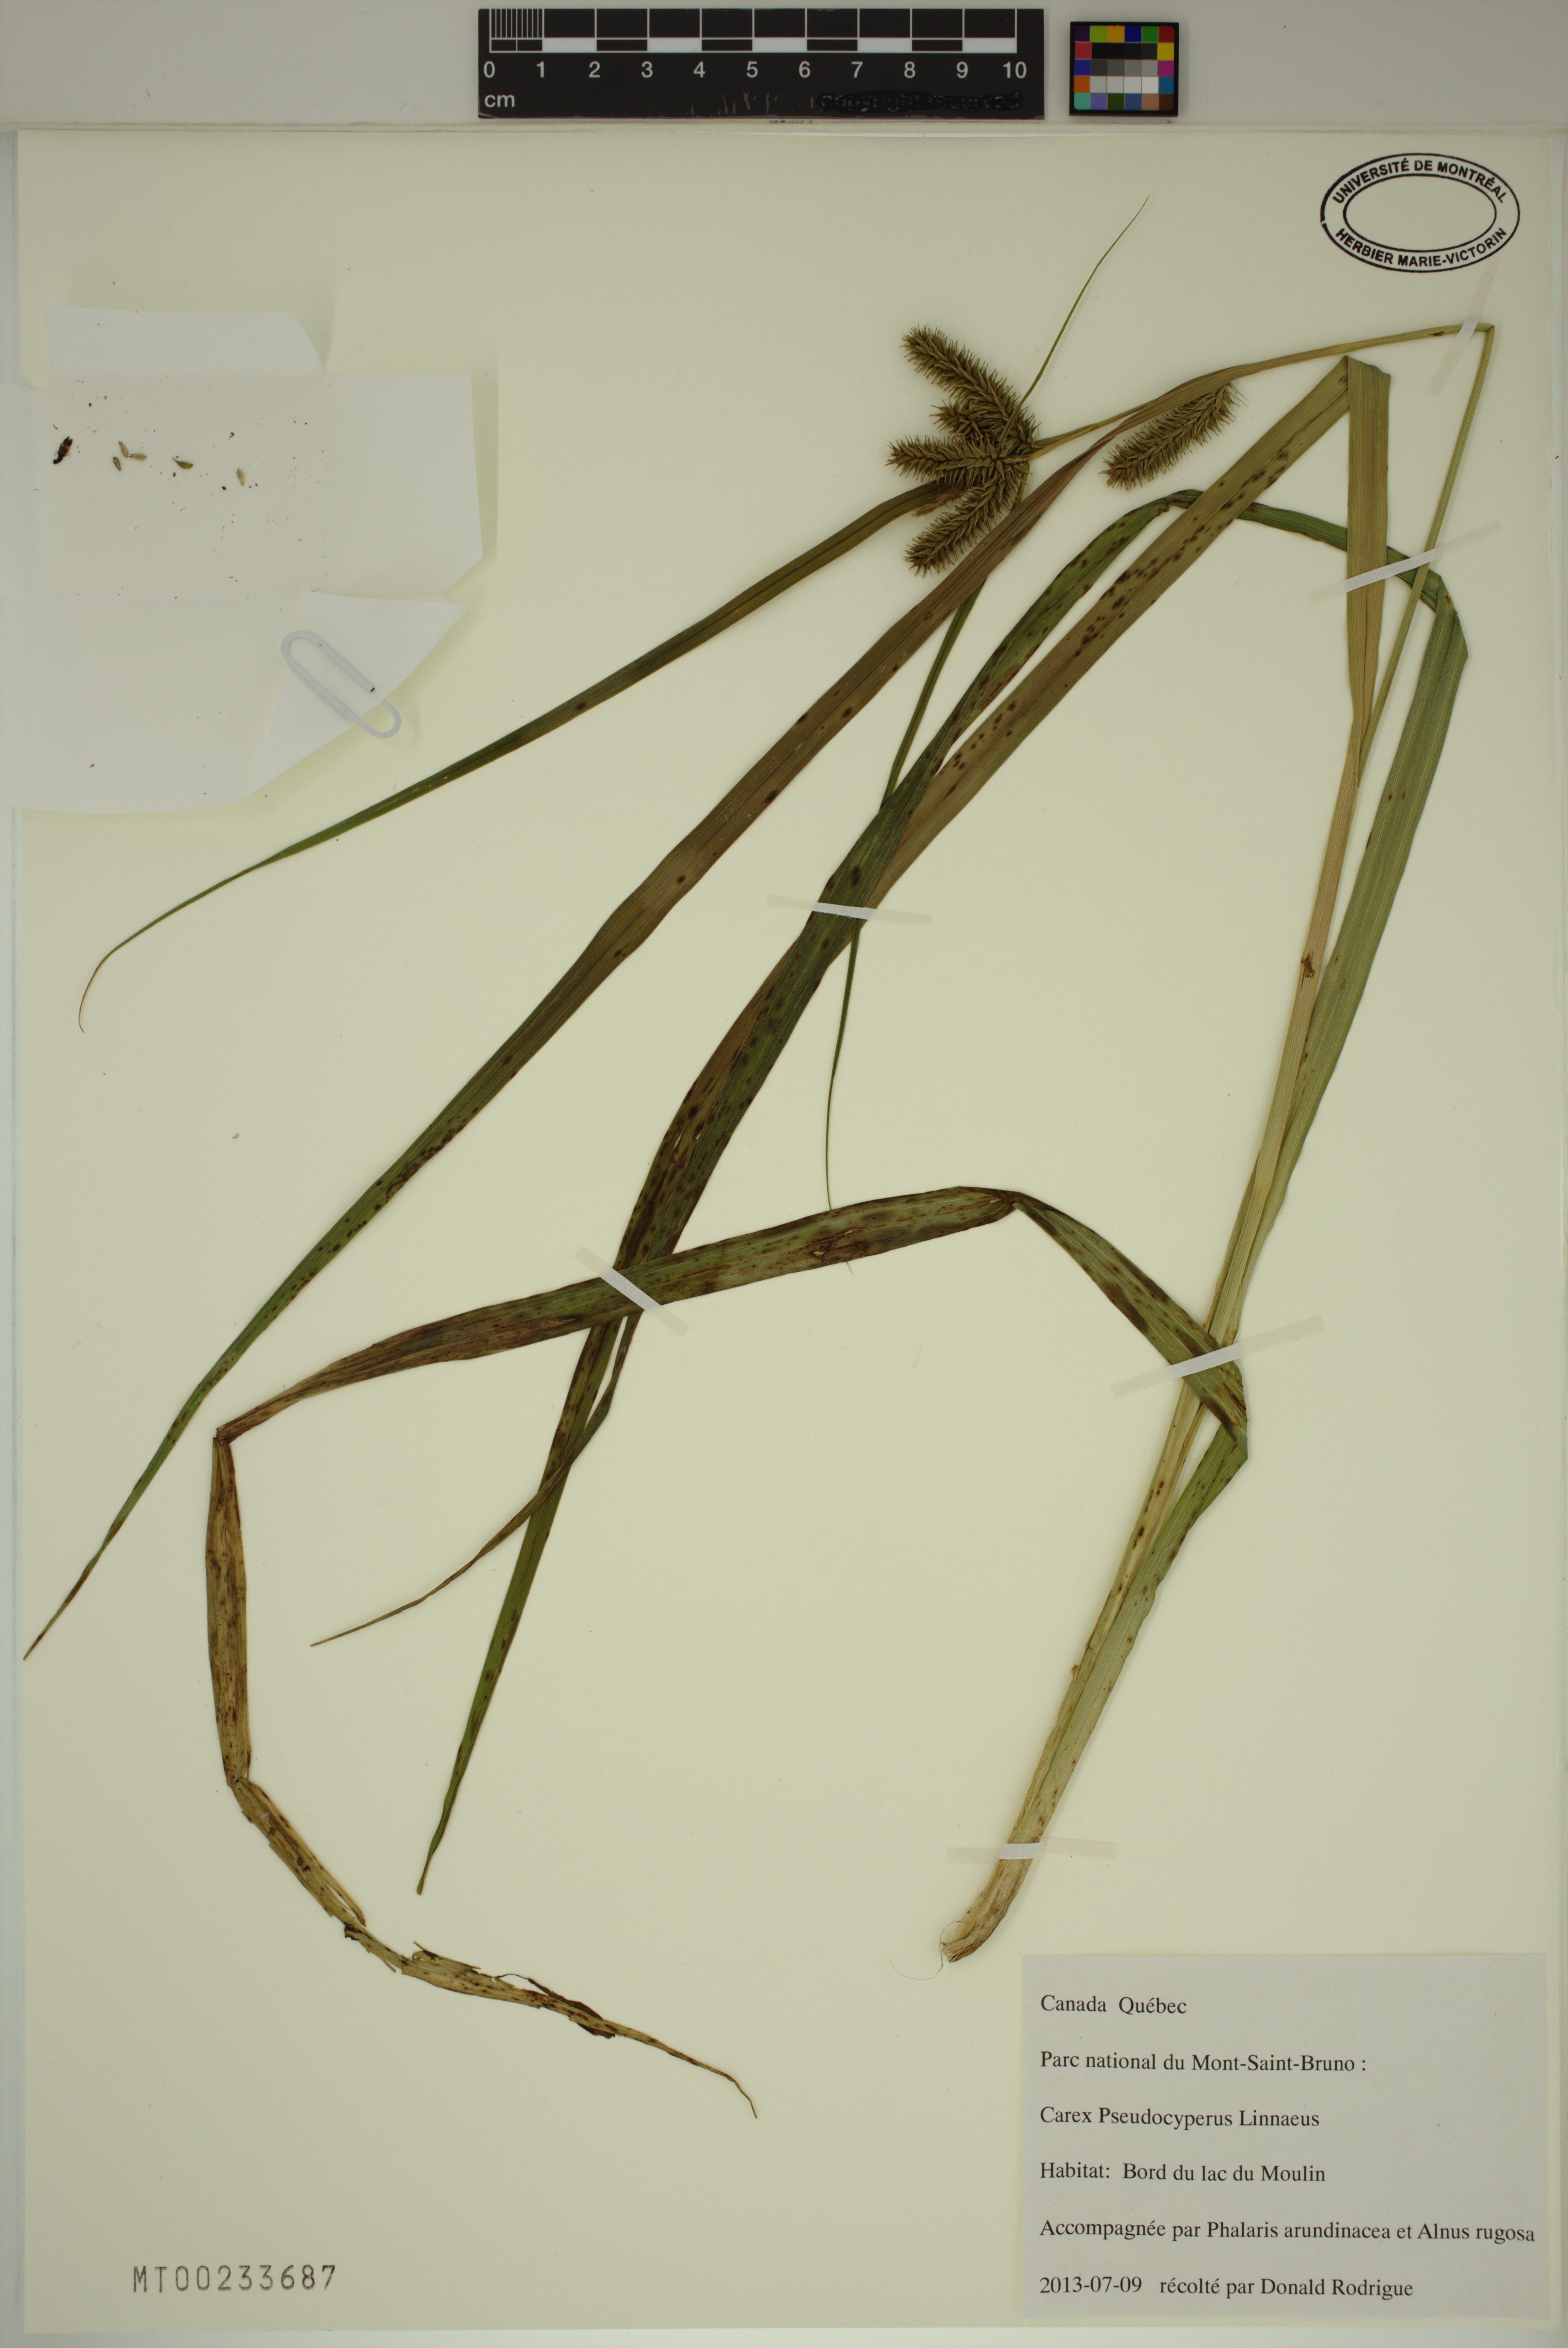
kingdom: Plantae
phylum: Tracheophyta
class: Liliopsida
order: Poales
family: Cyperaceae
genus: Carex
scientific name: Carex pseudocyperus
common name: Cyperus sedge
